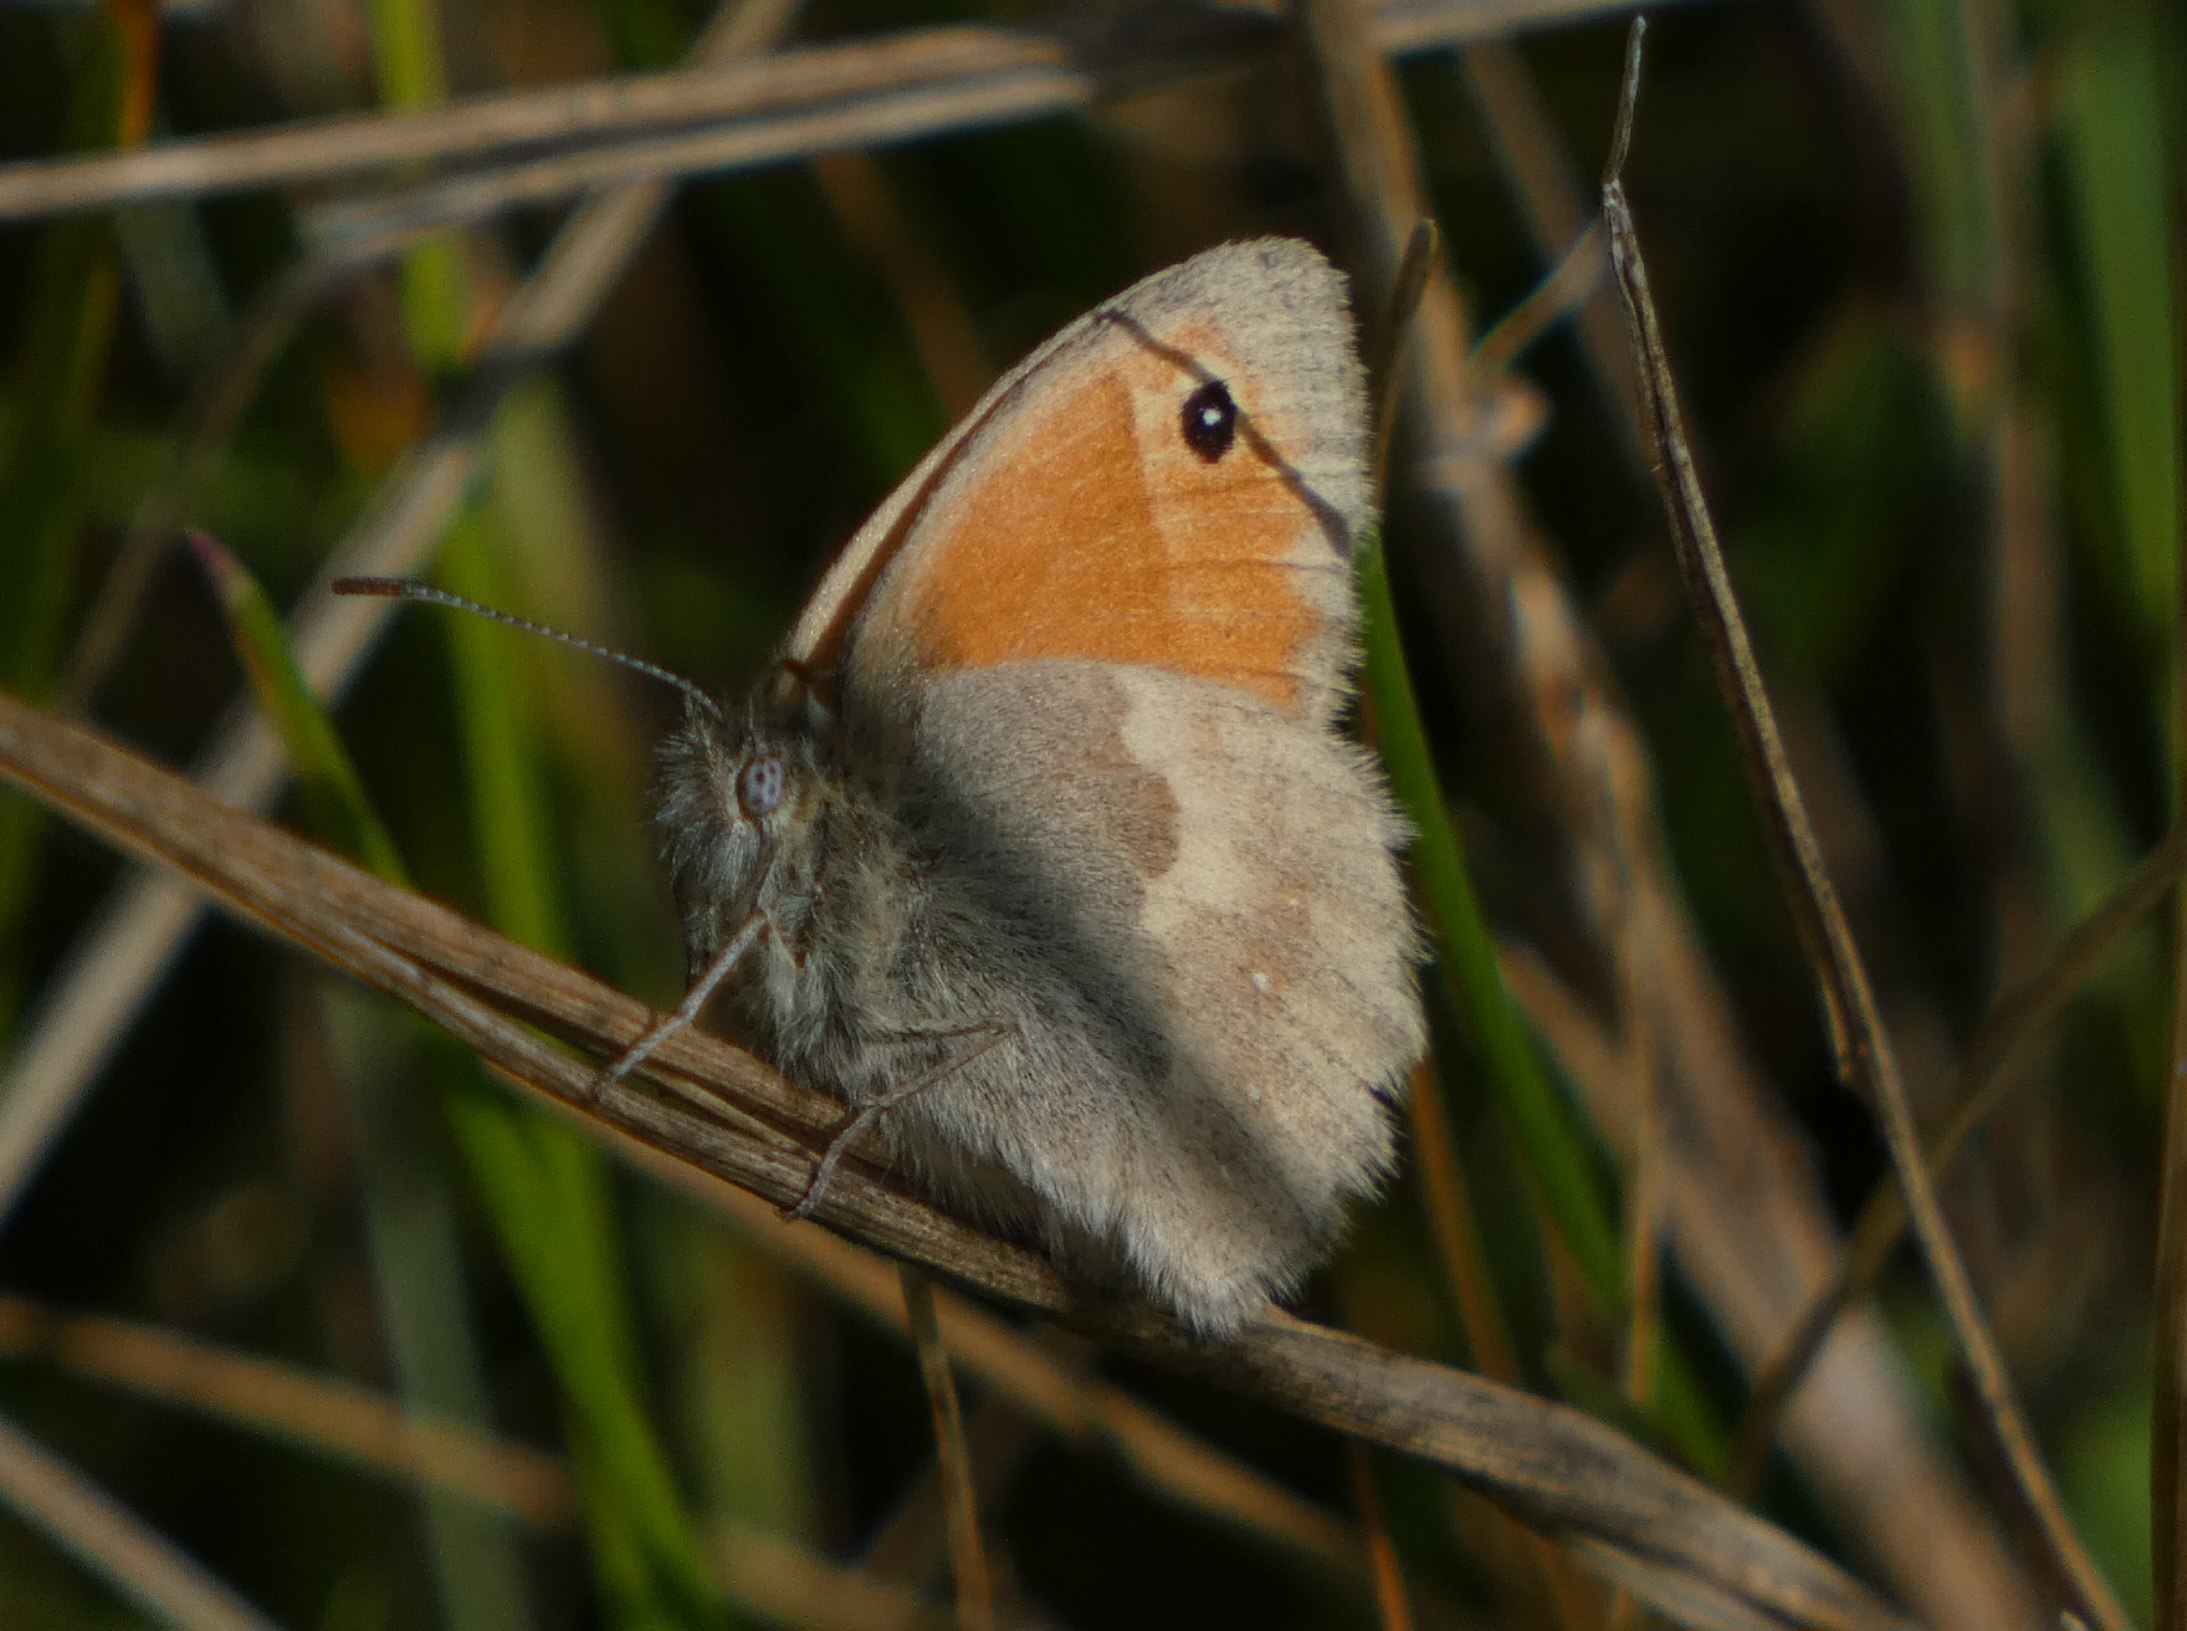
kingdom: Animalia
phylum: Arthropoda
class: Insecta
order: Lepidoptera
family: Nymphalidae
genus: Coenonympha
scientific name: Coenonympha pamphilus
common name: Okkergul randøje
